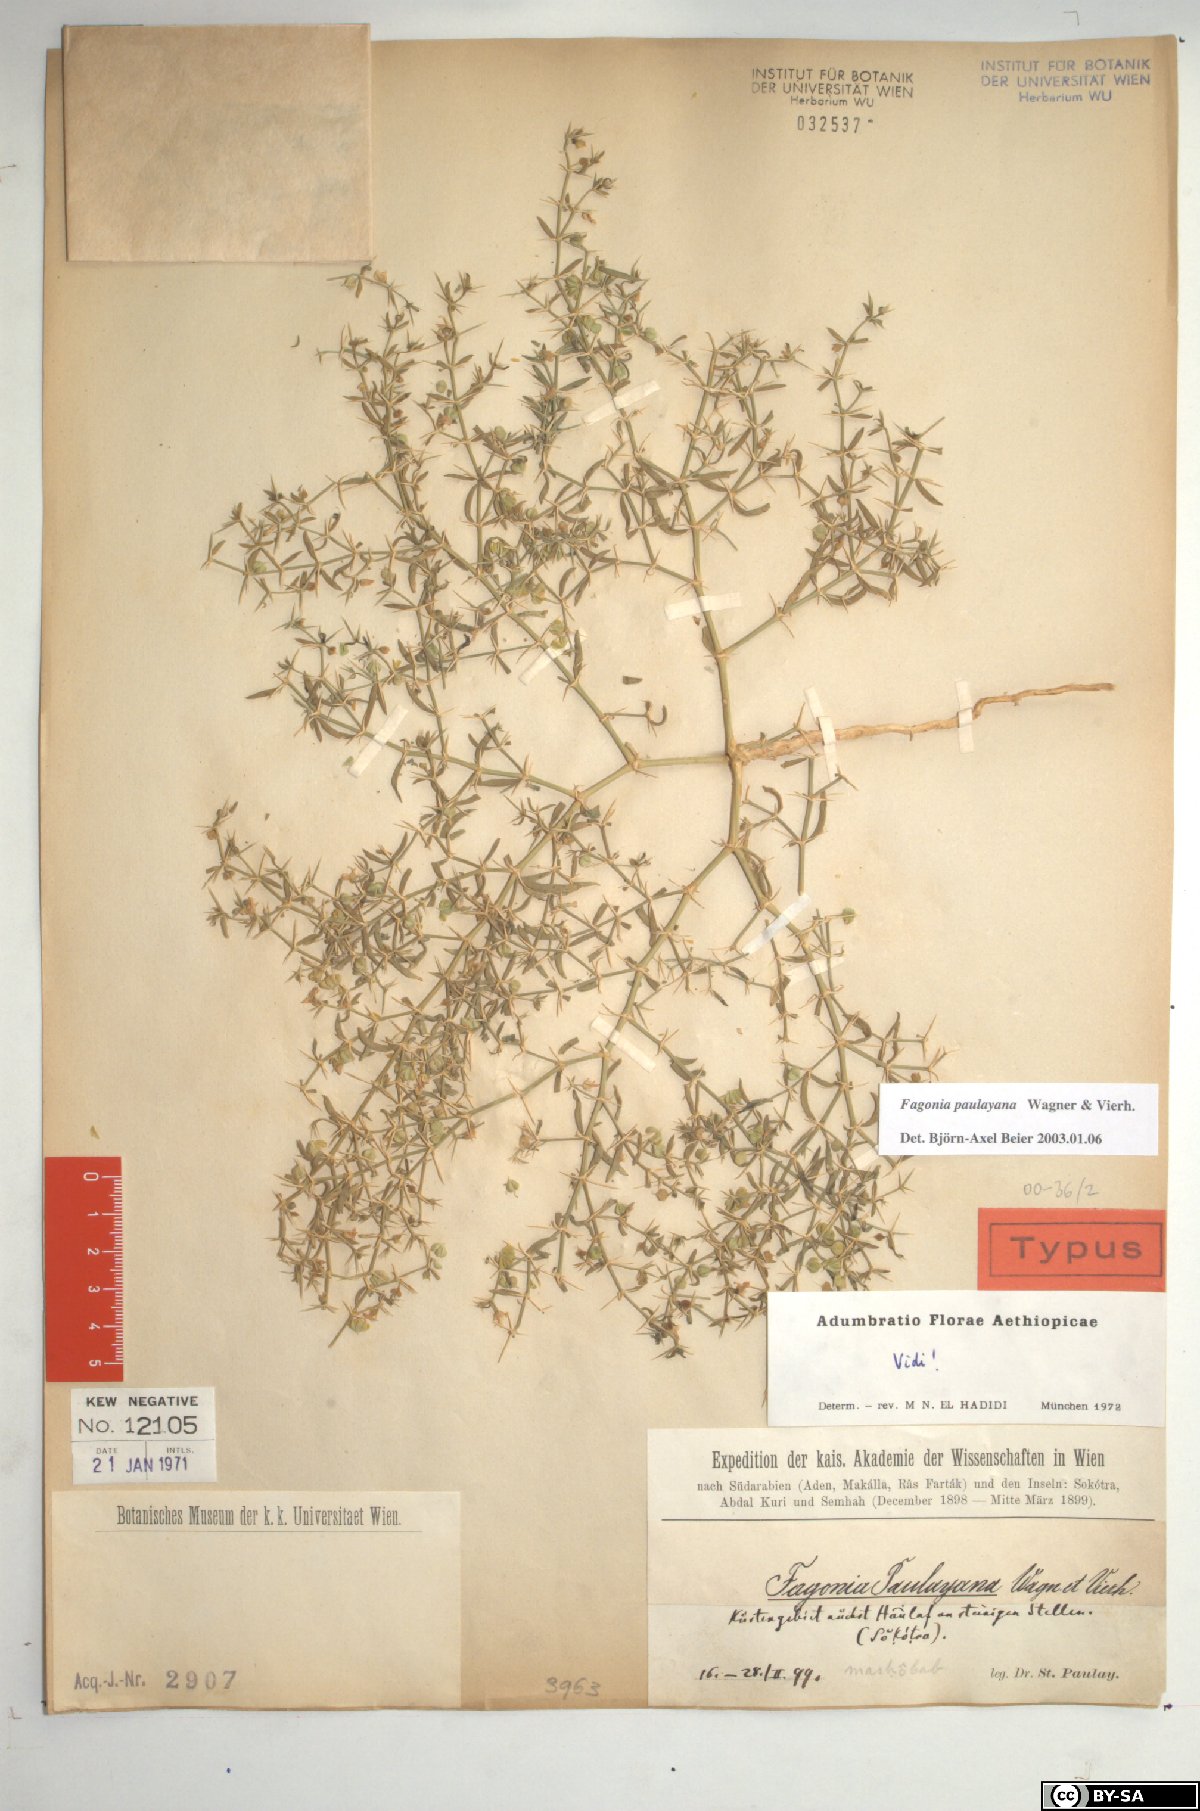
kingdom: Plantae
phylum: Tracheophyta
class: Magnoliopsida
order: Zygophyllales
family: Zygophyllaceae
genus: Fagonia
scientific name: Fagonia paulayana
